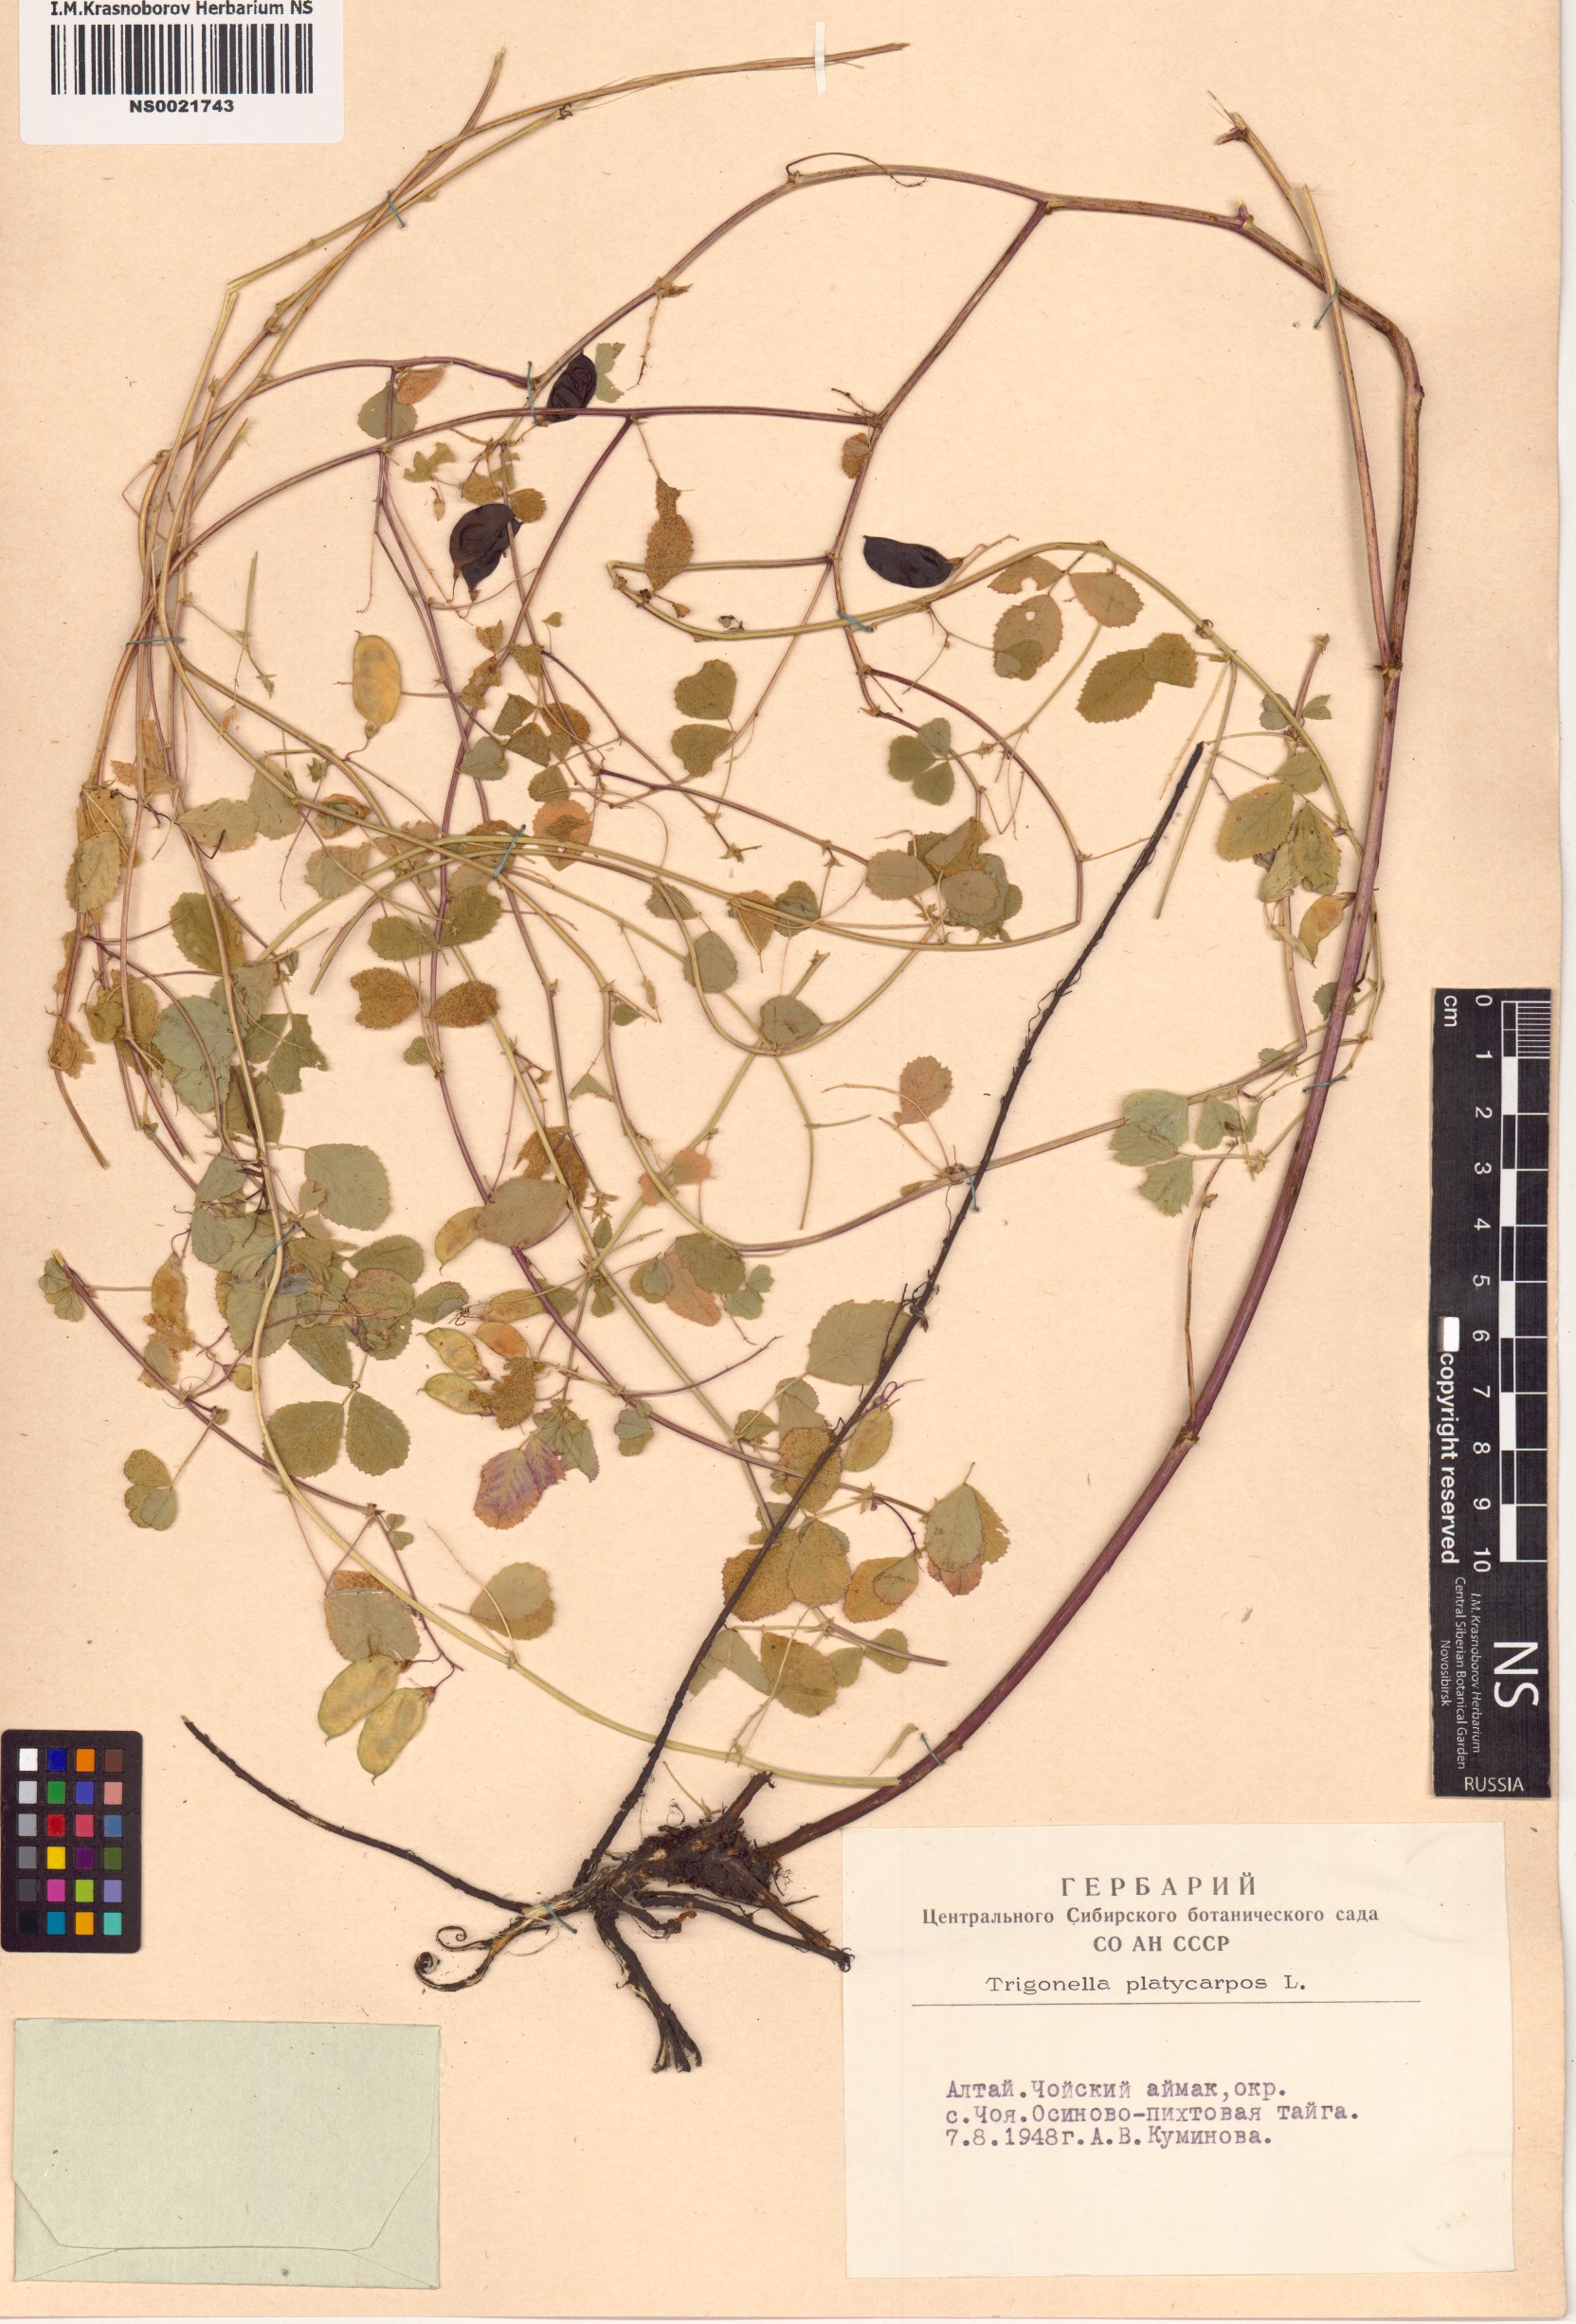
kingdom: Plantae
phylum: Tracheophyta
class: Magnoliopsida
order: Fabales
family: Fabaceae
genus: Medicago
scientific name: Medicago platycarpos
